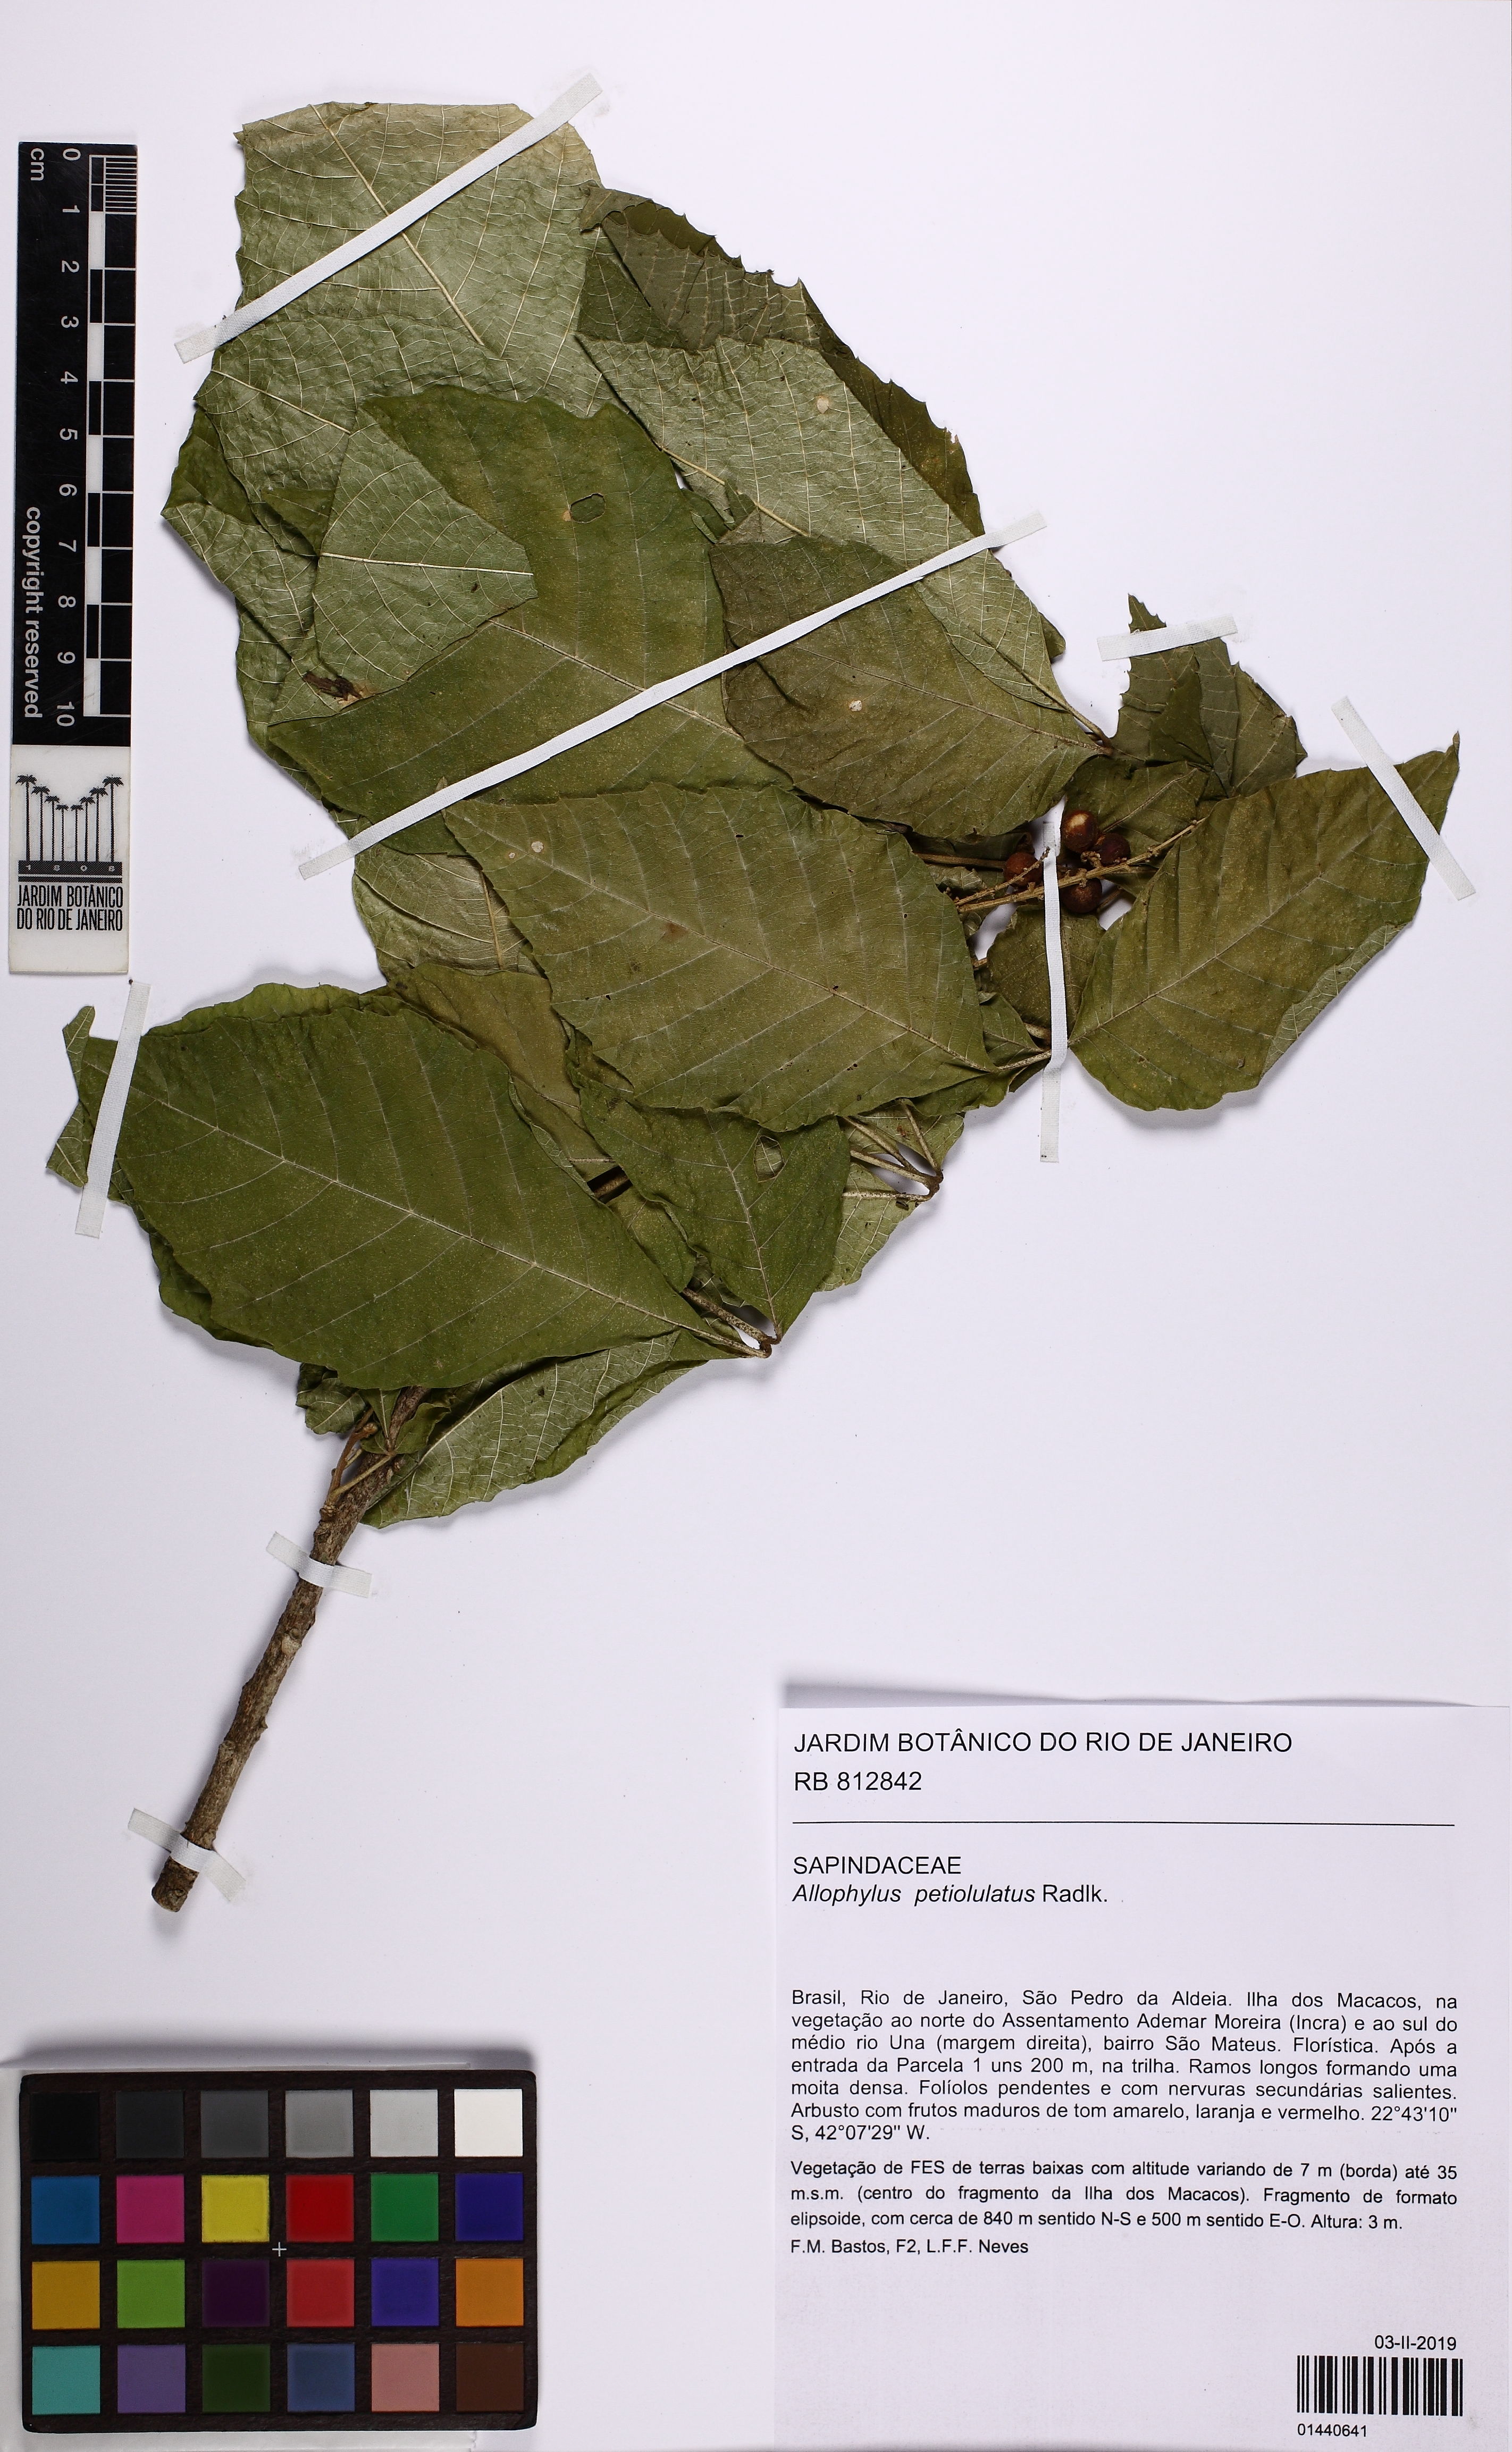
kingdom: Plantae
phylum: Tracheophyta
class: Magnoliopsida
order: Sapindales
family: Sapindaceae
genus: Allophylus
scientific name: Allophylus petiolulatus
